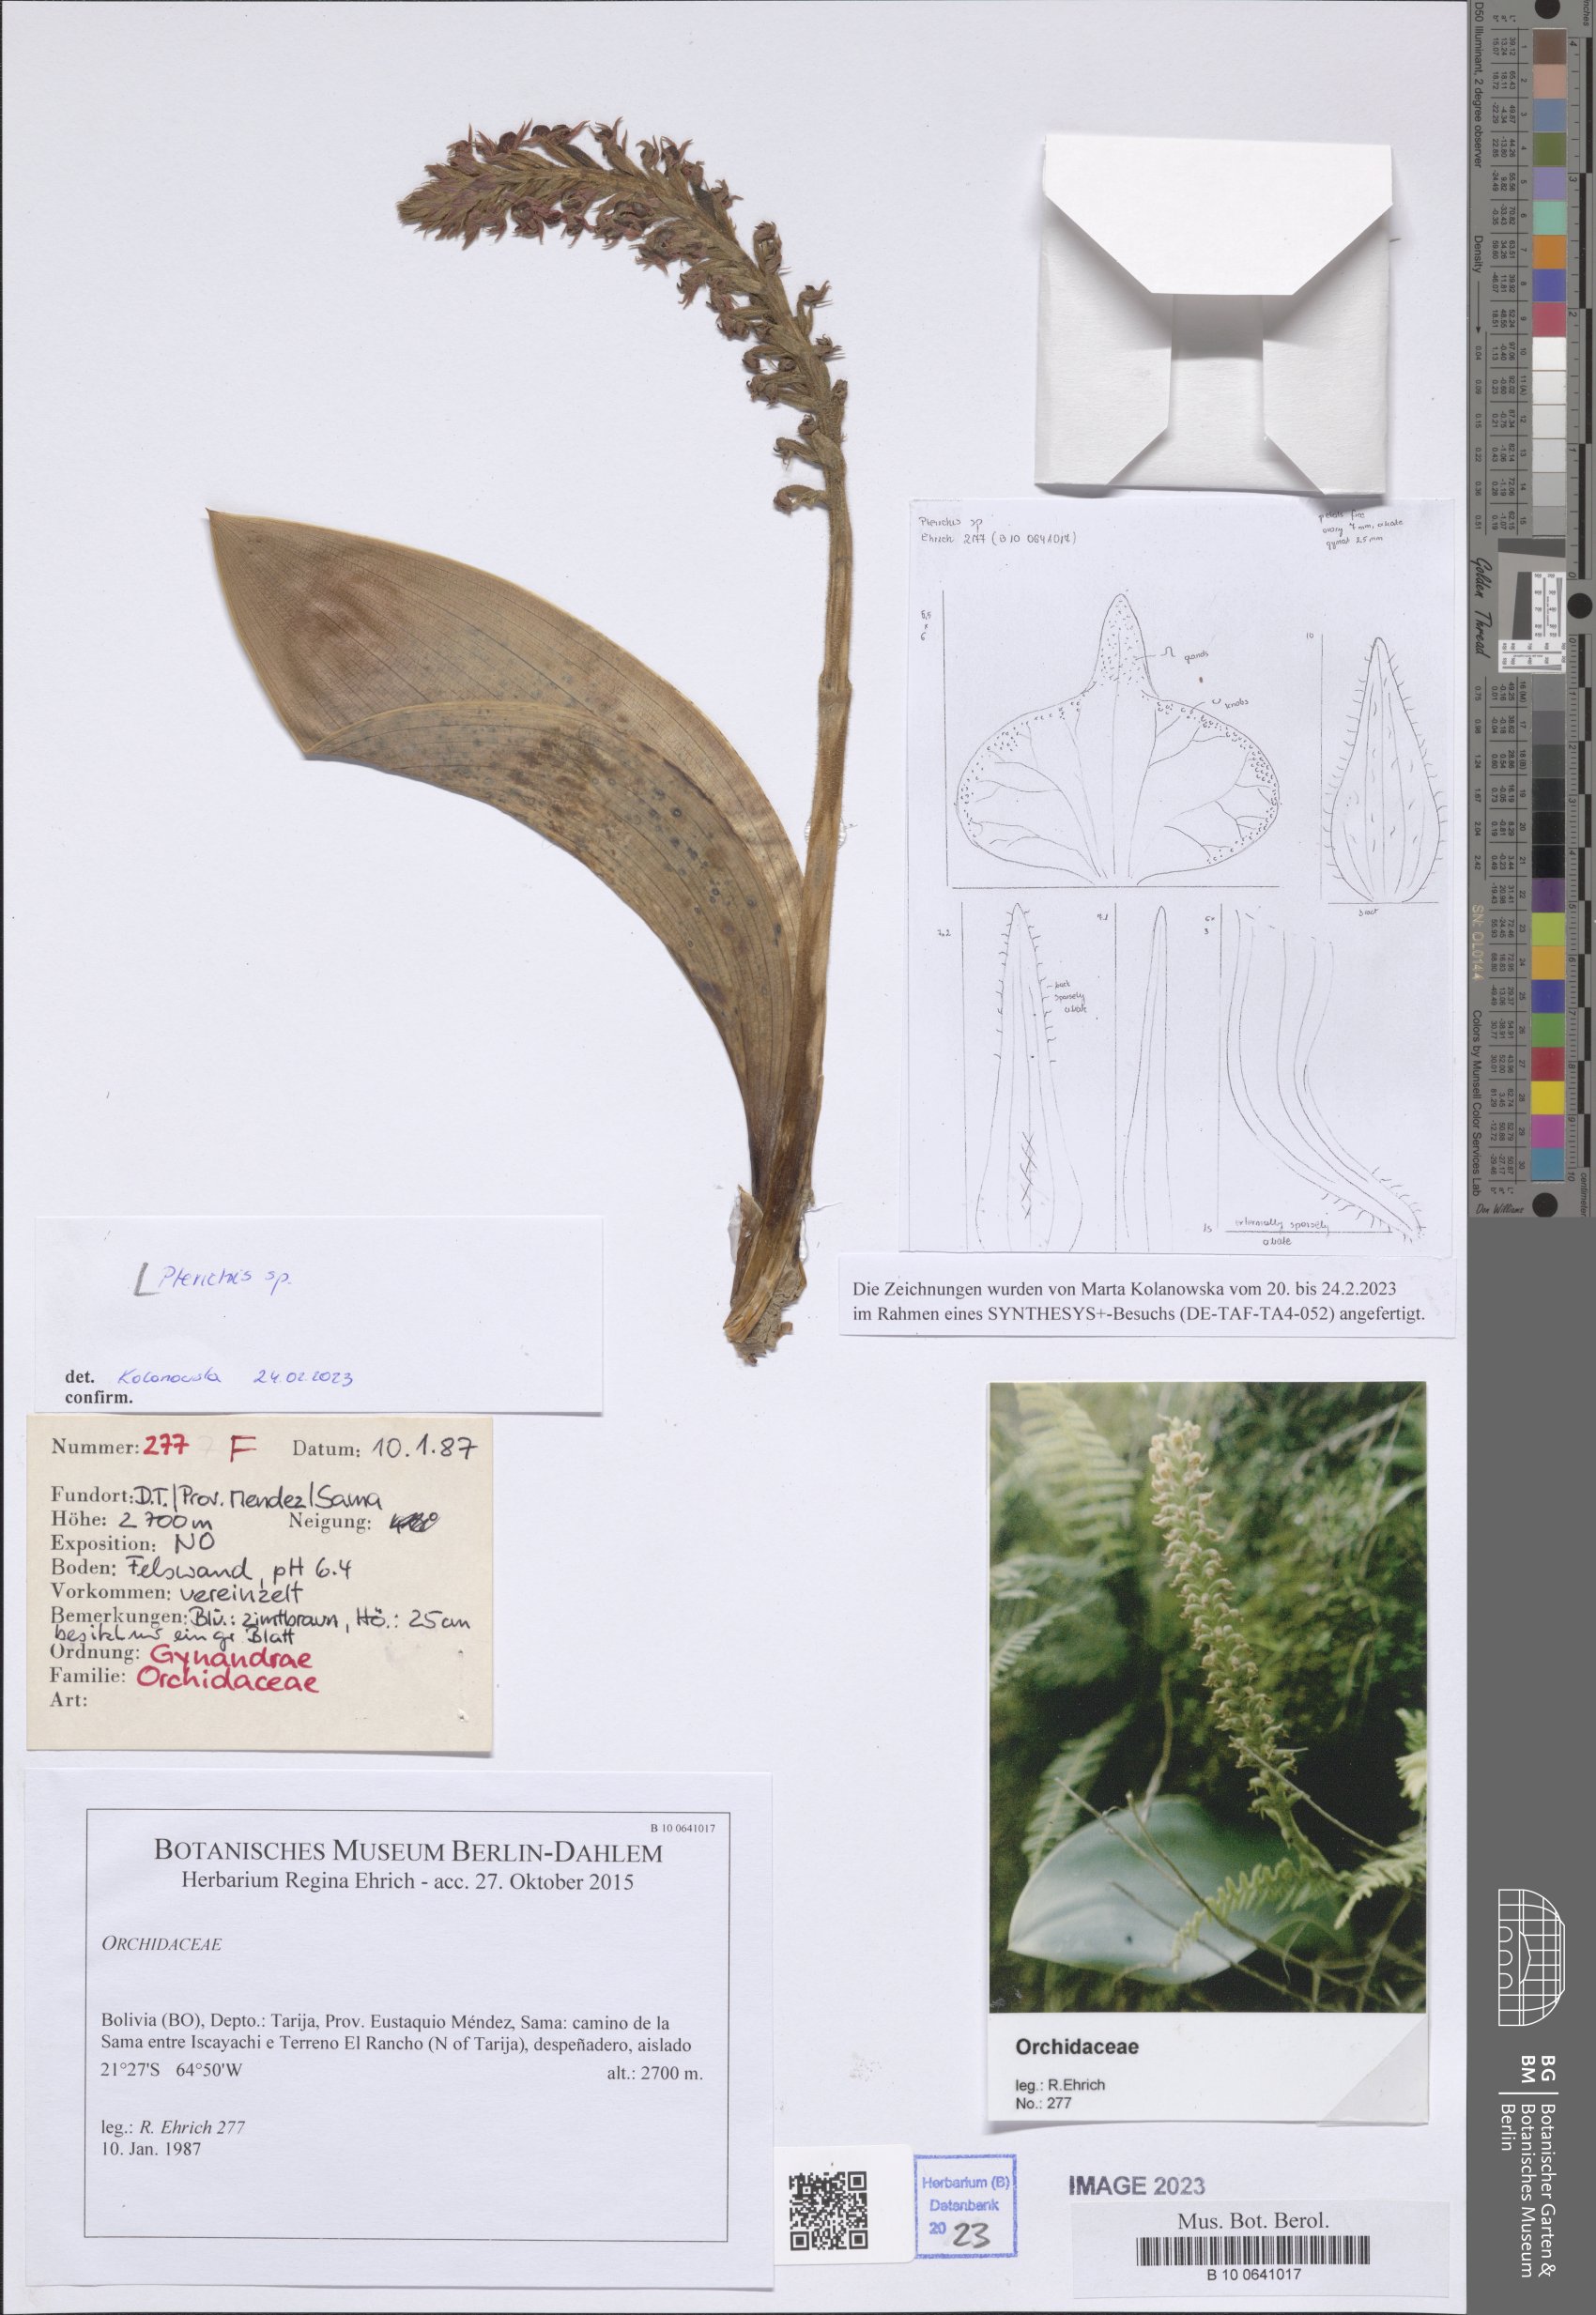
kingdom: Plantae
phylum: Tracheophyta
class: Liliopsida
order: Asparagales
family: Orchidaceae
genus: Pterichis
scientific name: Pterichis
